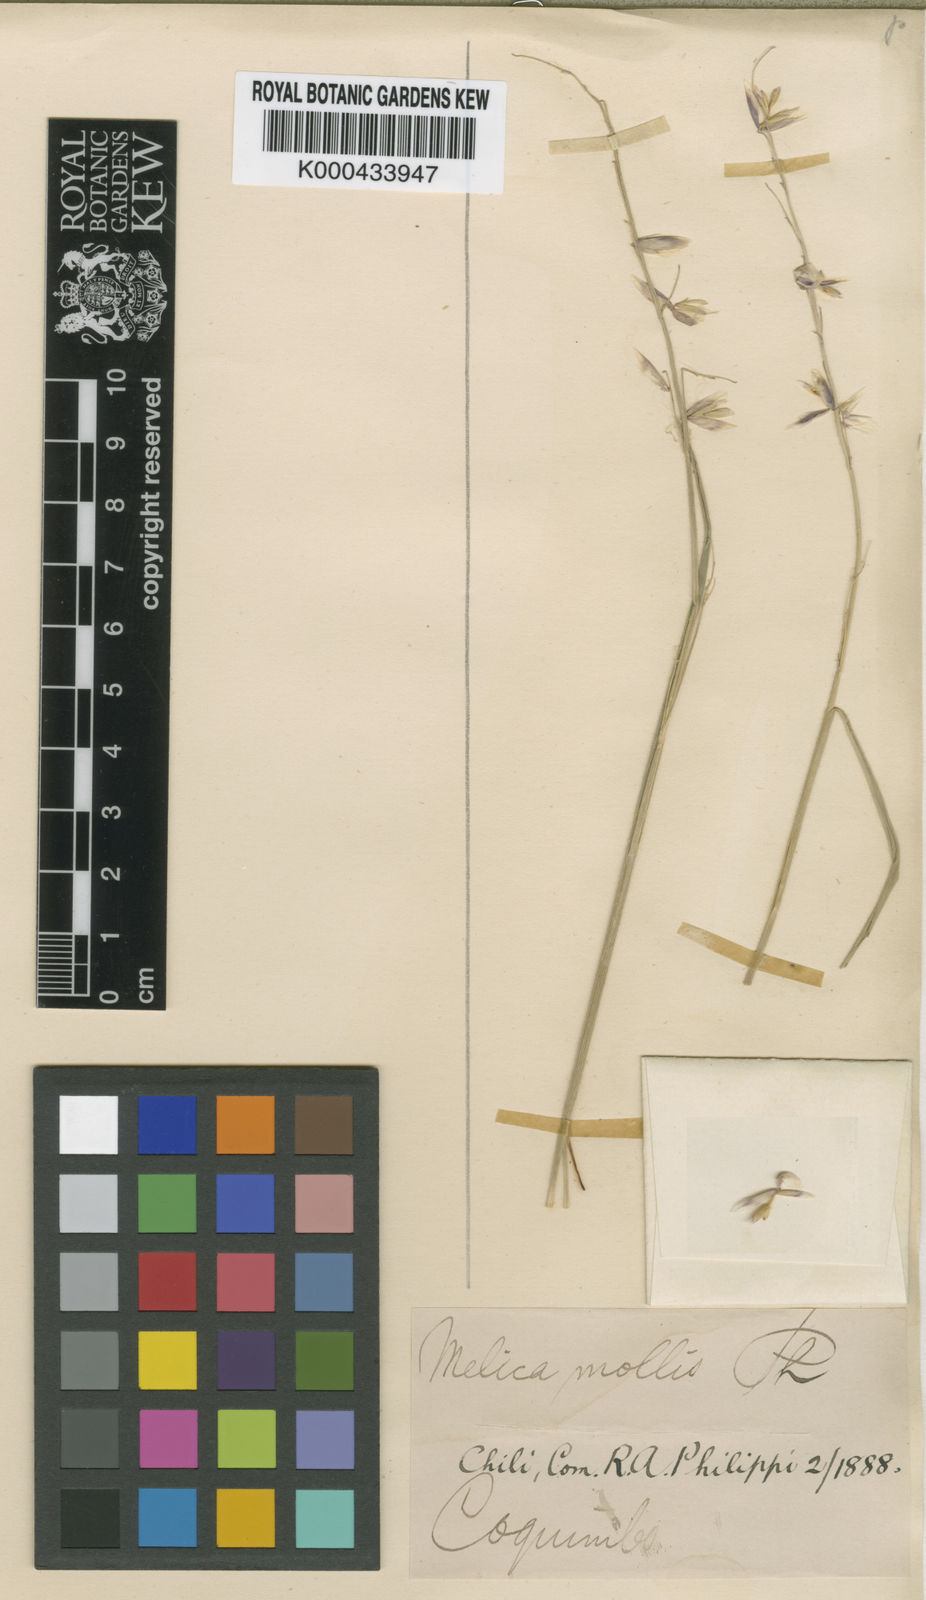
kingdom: Plantae
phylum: Tracheophyta
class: Liliopsida
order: Poales
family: Poaceae
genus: Melica
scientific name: Melica mollis
